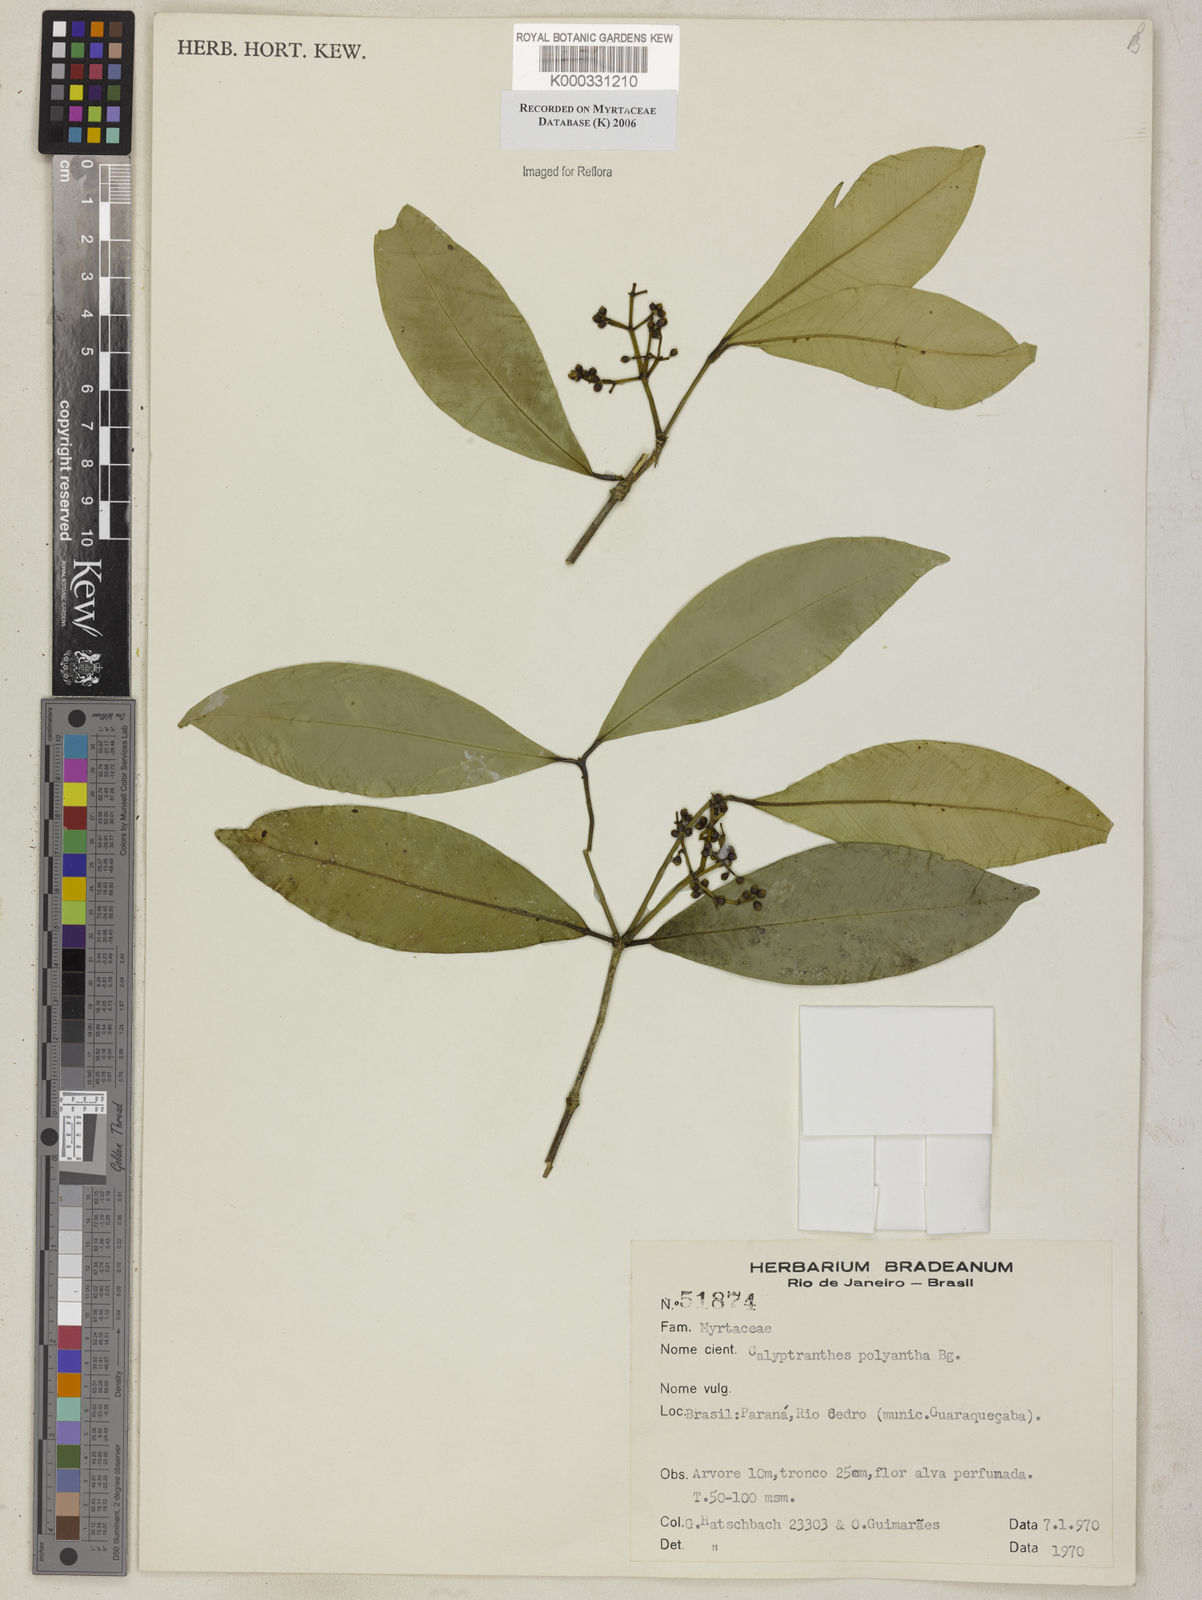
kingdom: Plantae
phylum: Tracheophyta
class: Magnoliopsida
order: Myrtales
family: Myrtaceae
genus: Myrcia
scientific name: Myrcia neolucida
